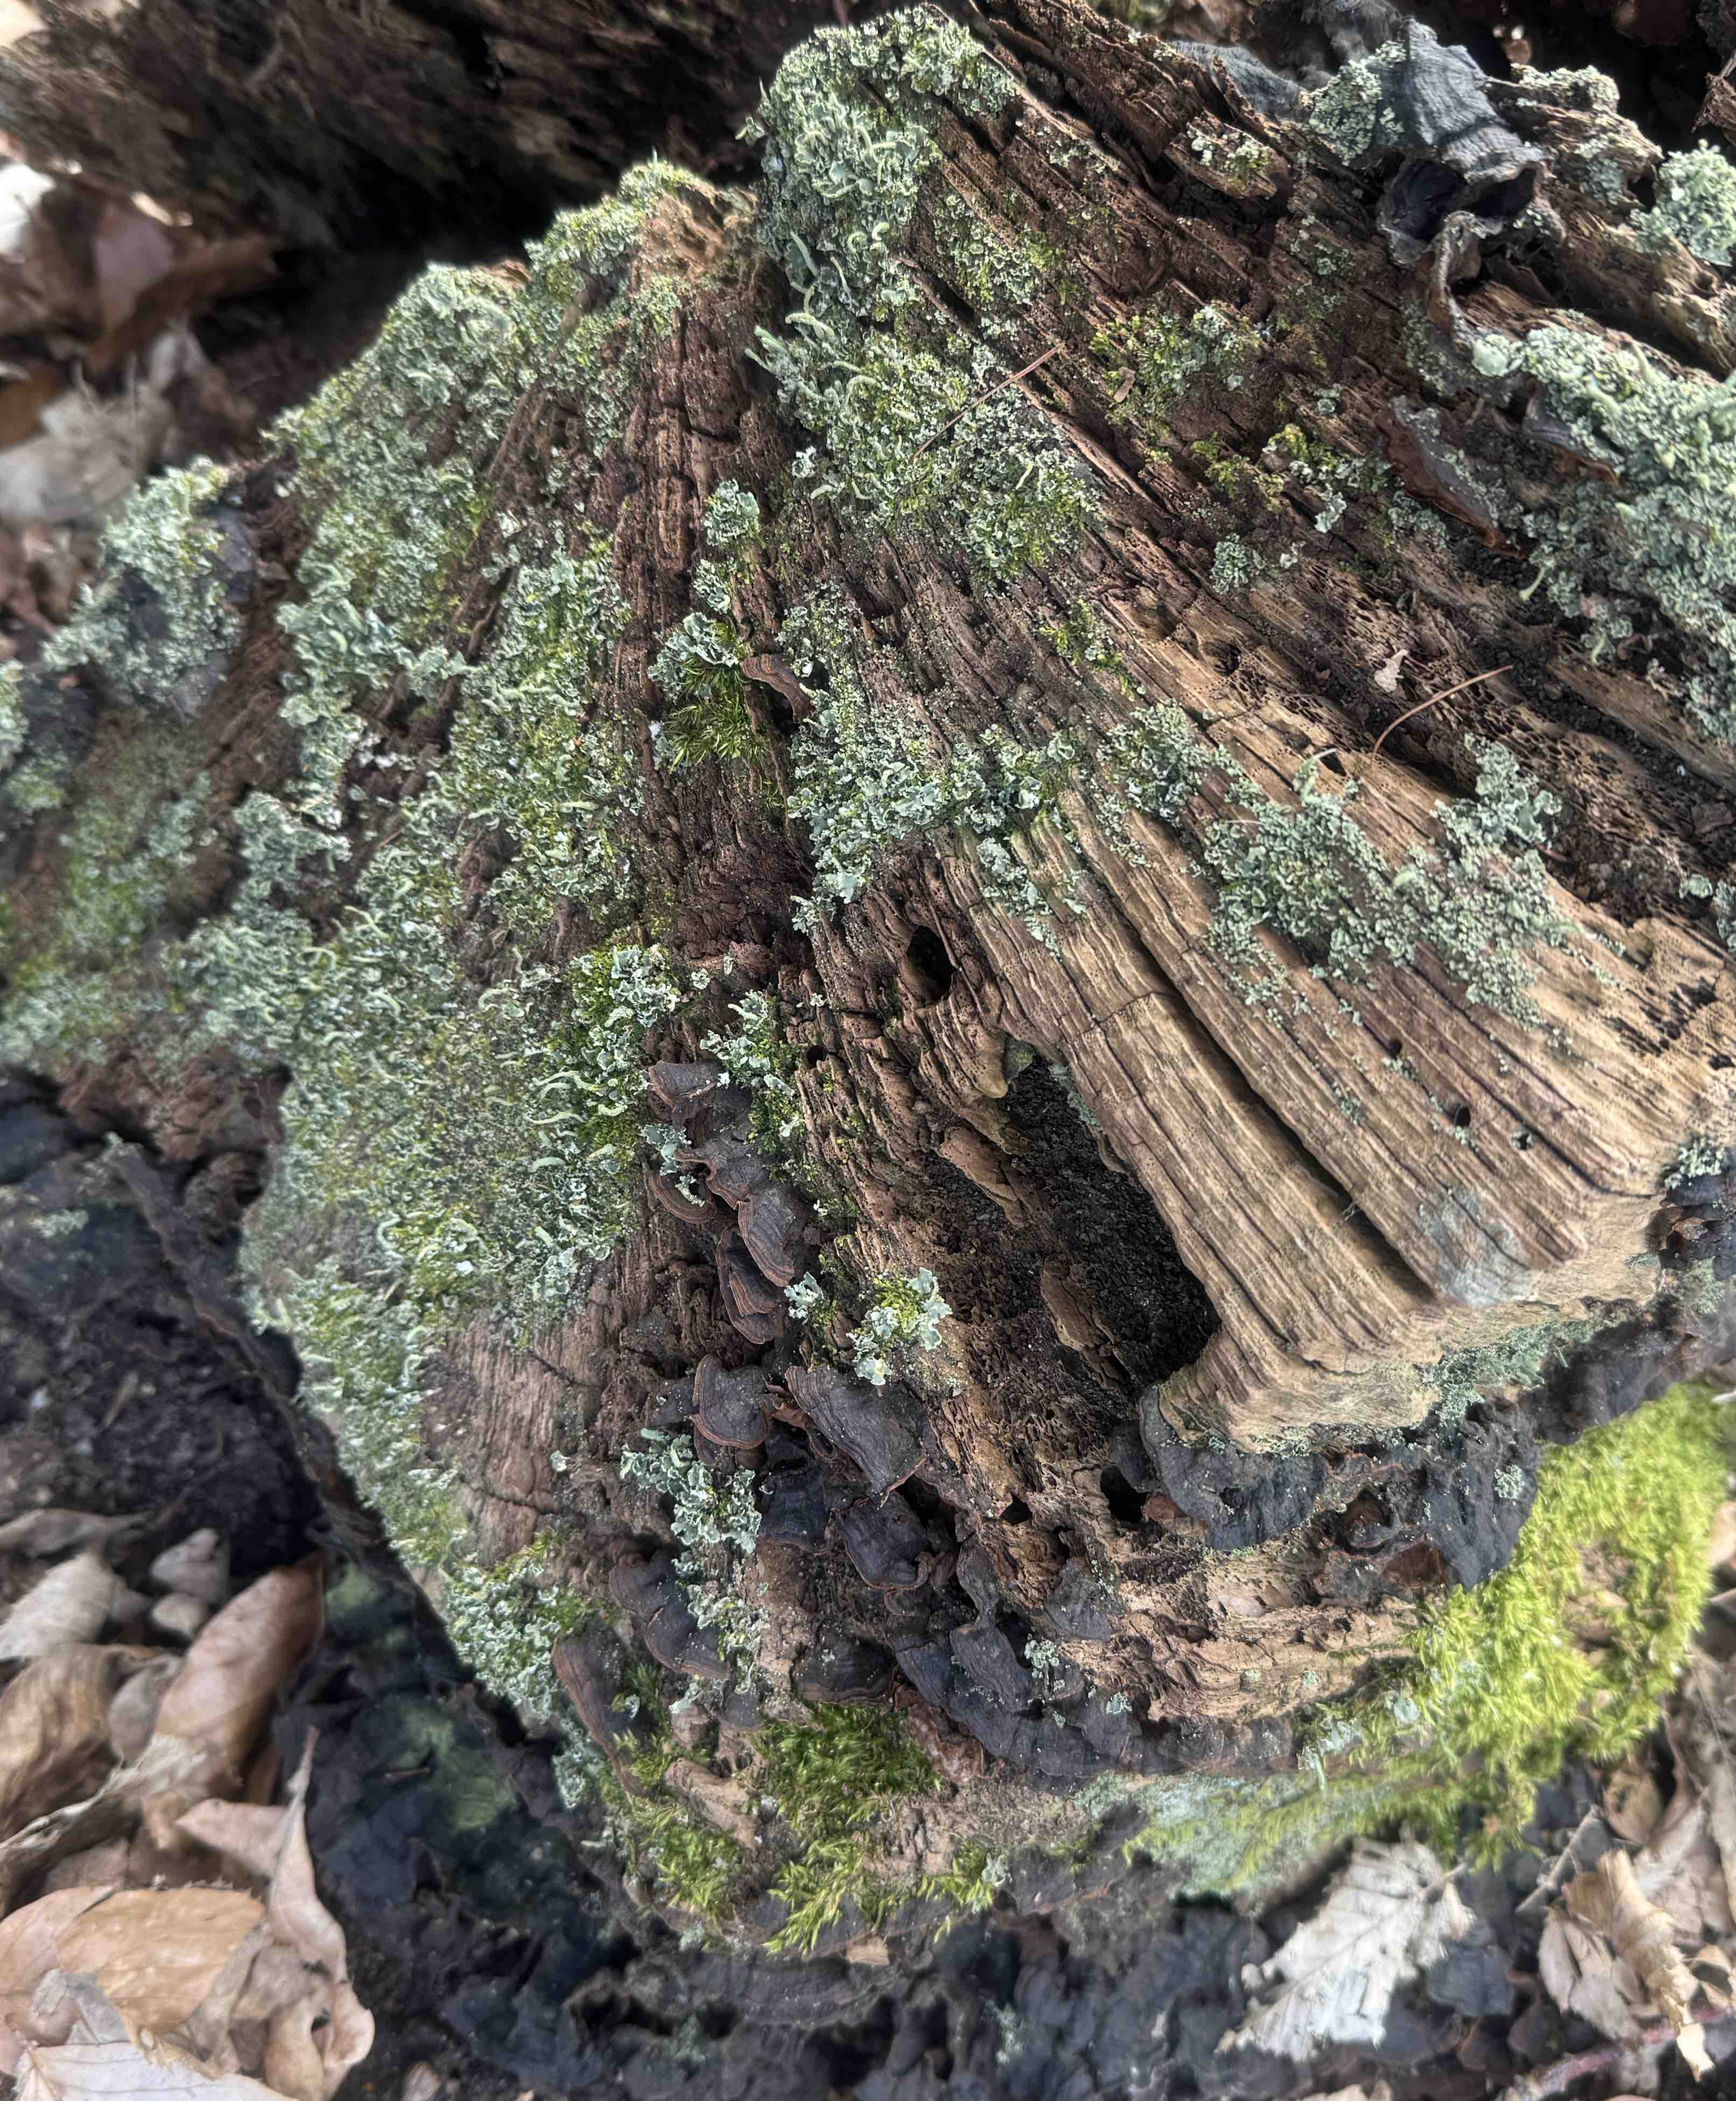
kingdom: Fungi
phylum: Basidiomycota
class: Agaricomycetes
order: Hymenochaetales
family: Hymenochaetaceae
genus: Hymenochaete
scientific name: Hymenochaete rubiginosa
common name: stiv ruslædersvamp
